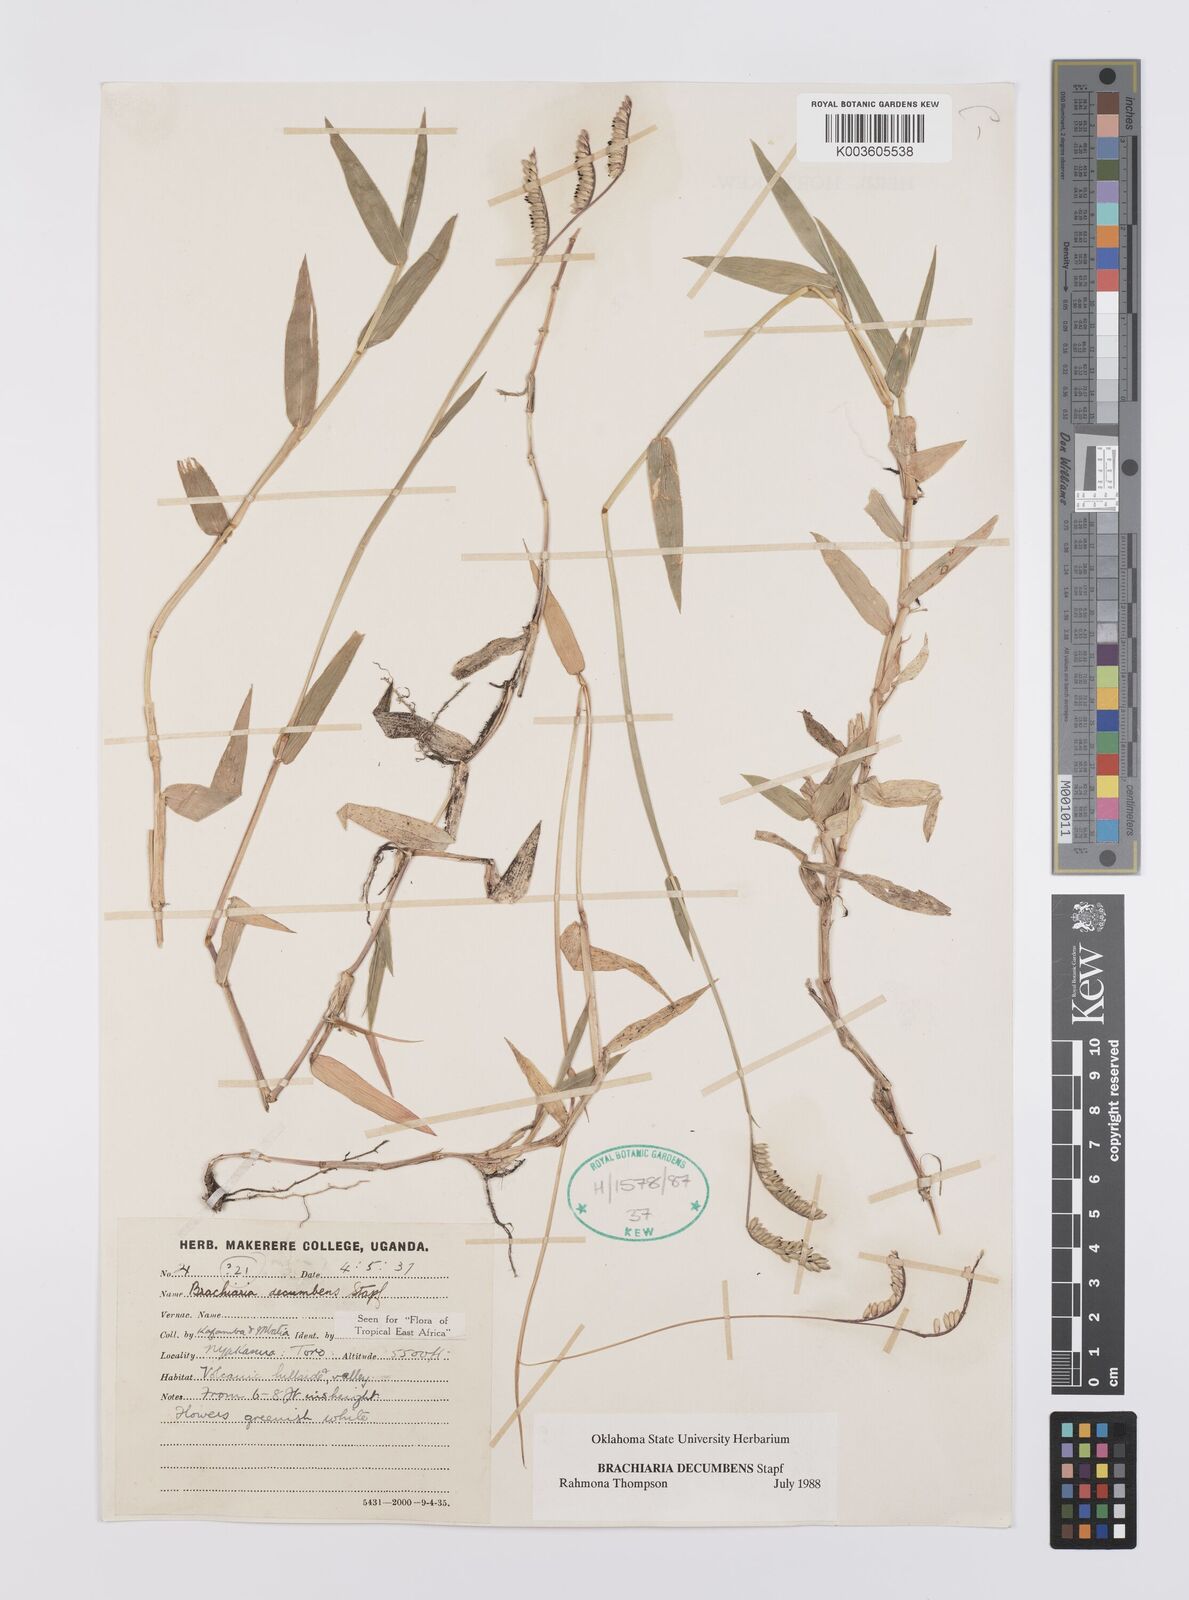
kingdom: Plantae
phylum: Tracheophyta
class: Liliopsida
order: Poales
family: Poaceae
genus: Urochloa
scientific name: Urochloa eminii
